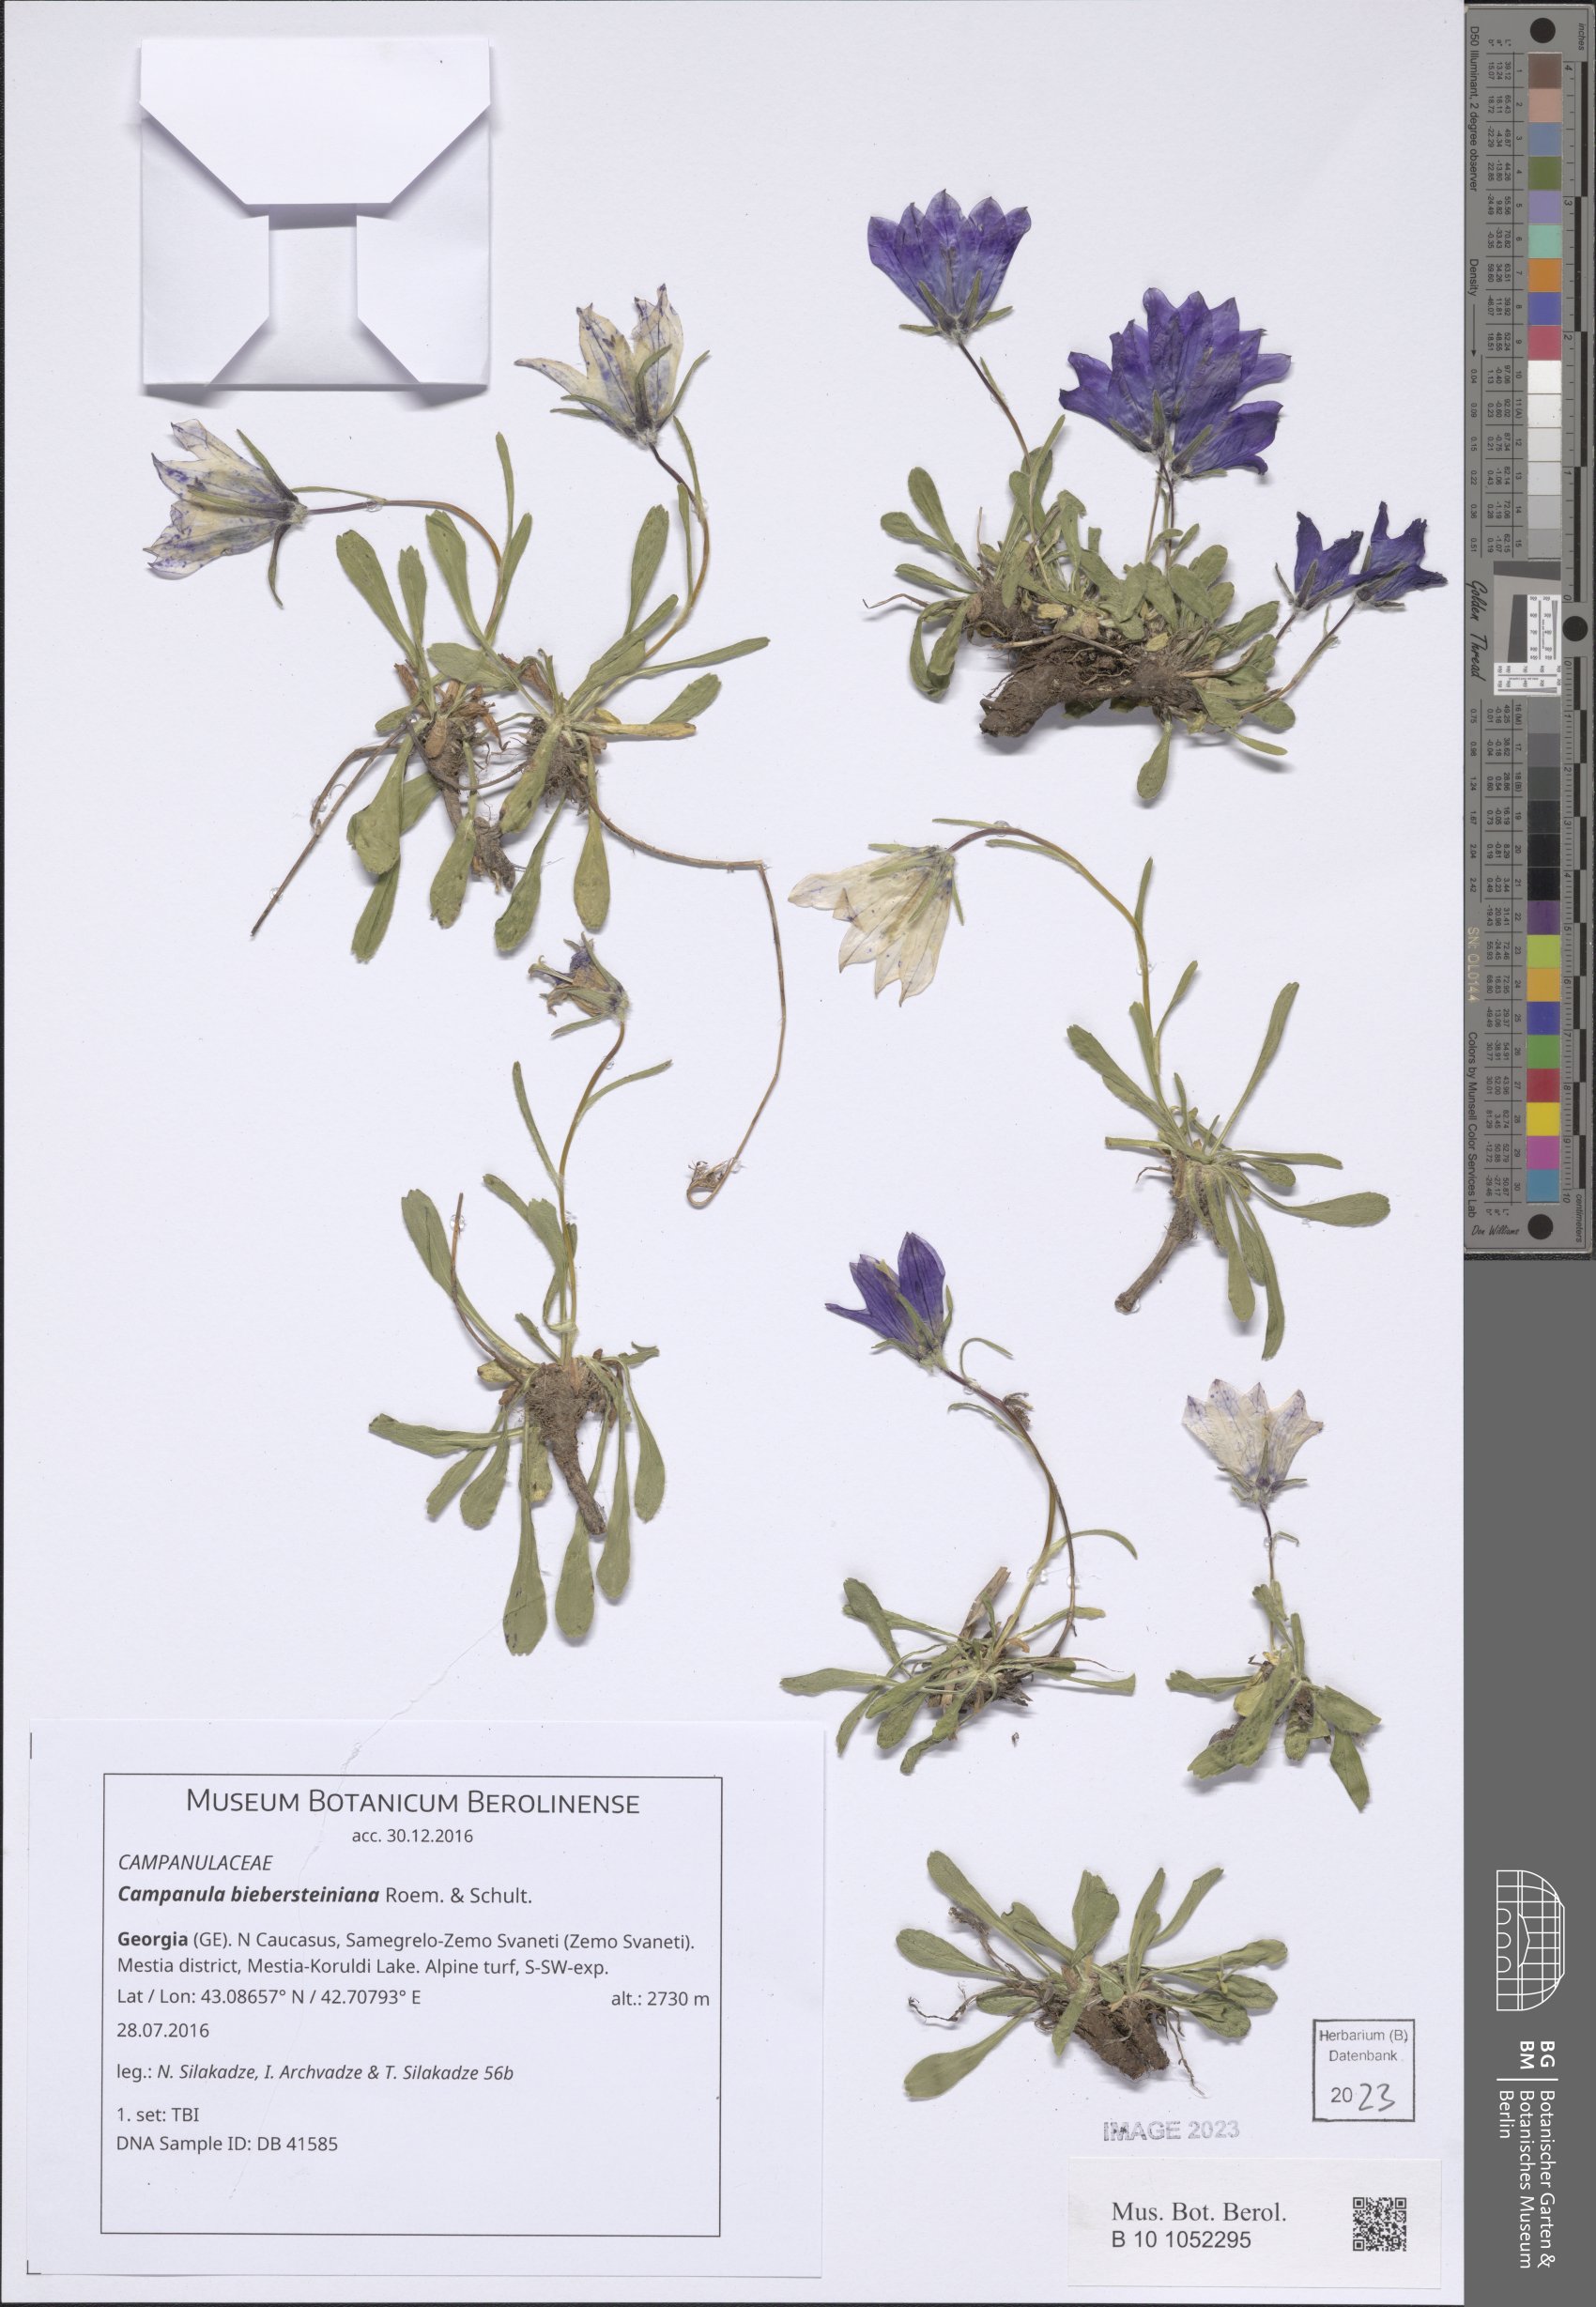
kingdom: Plantae
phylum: Tracheophyta
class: Magnoliopsida
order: Asterales
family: Campanulaceae
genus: Campanula
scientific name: Campanula tridentata
